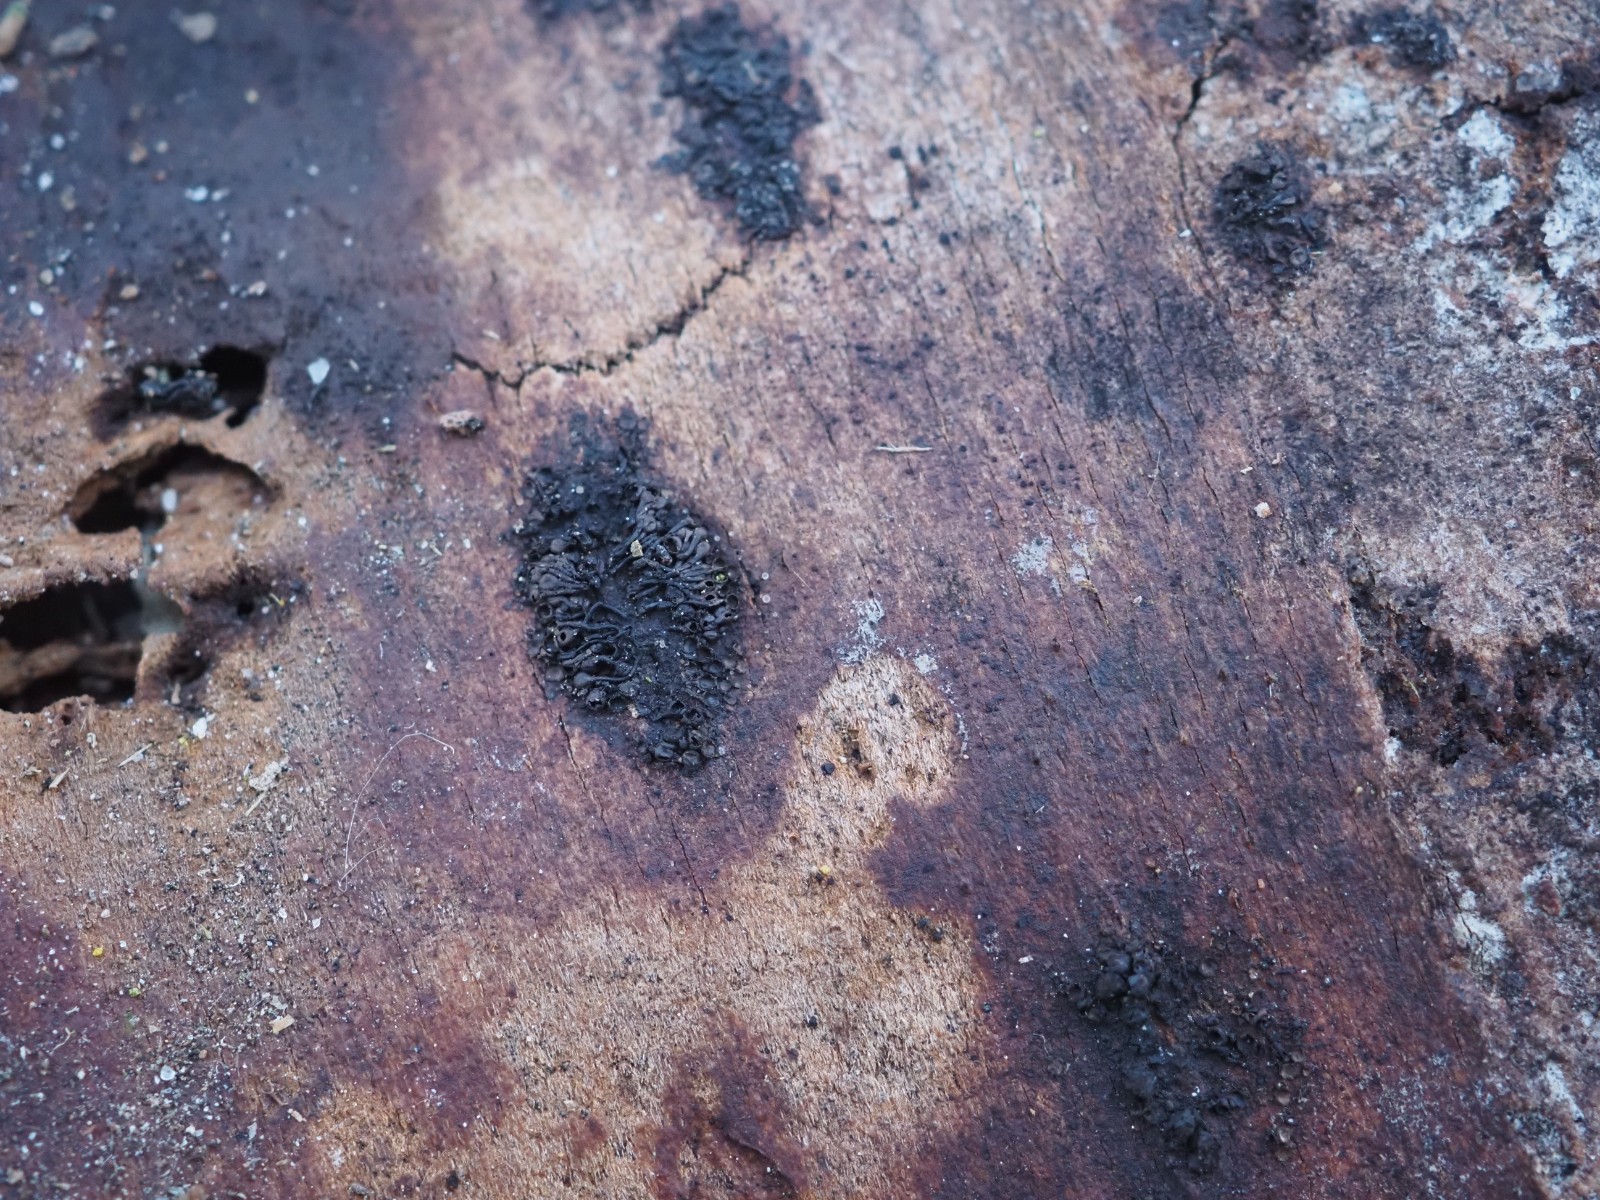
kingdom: Fungi
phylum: Ascomycota
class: Sordariomycetes
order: Calosphaeriales
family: Calosphaeriaceae
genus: Calosphaeria
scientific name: Calosphaeria pulchella
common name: smuk slyngkerne
